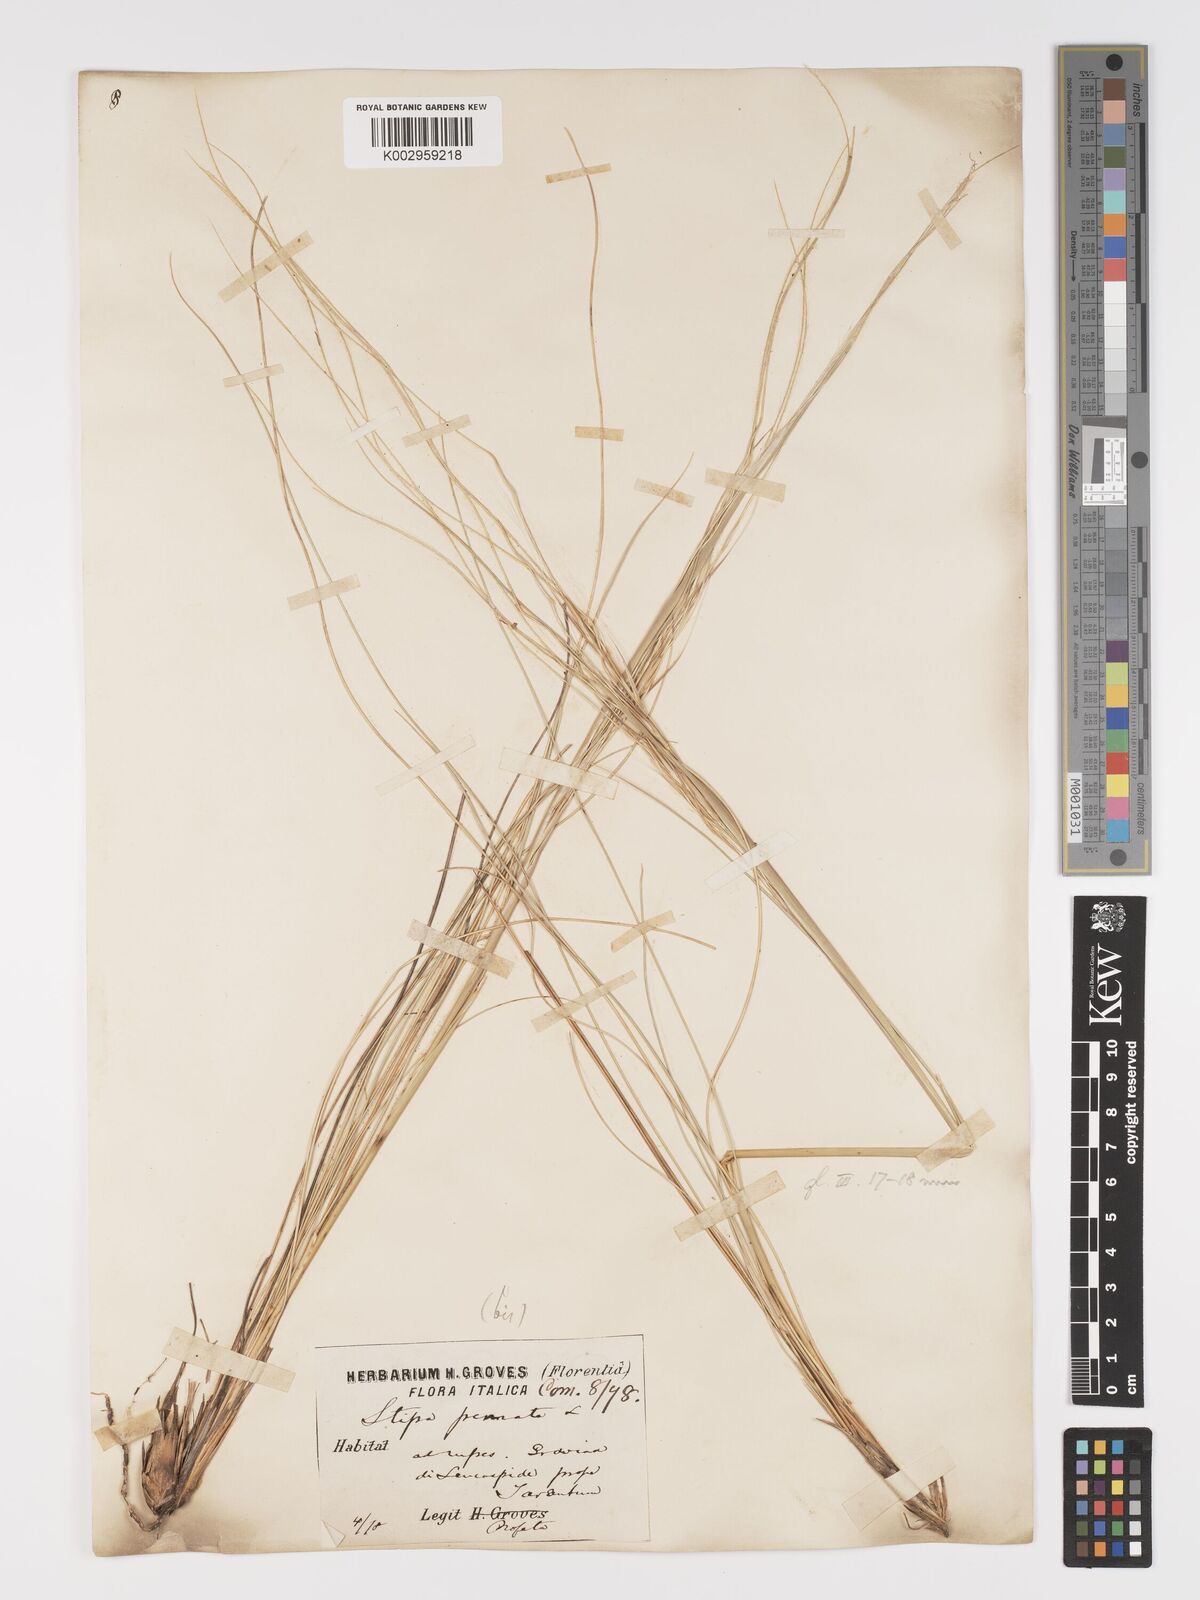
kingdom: Plantae
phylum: Tracheophyta
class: Liliopsida
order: Poales
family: Poaceae
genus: Stipa
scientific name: Stipa pennata
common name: European feather grass
